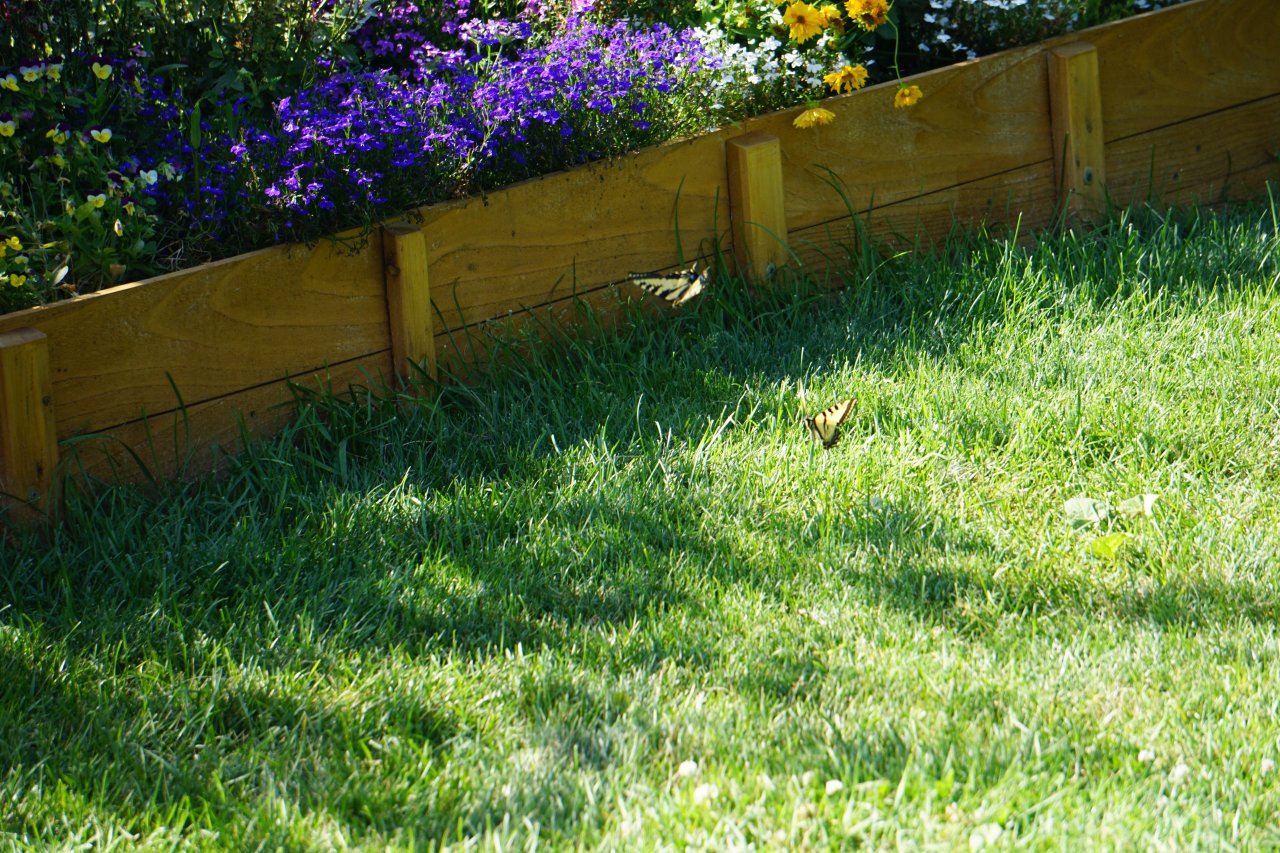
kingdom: Animalia
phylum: Arthropoda
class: Insecta
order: Lepidoptera
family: Papilionidae
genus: Pterourus
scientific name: Pterourus rutulus
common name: Western Tiger Swallowtail
